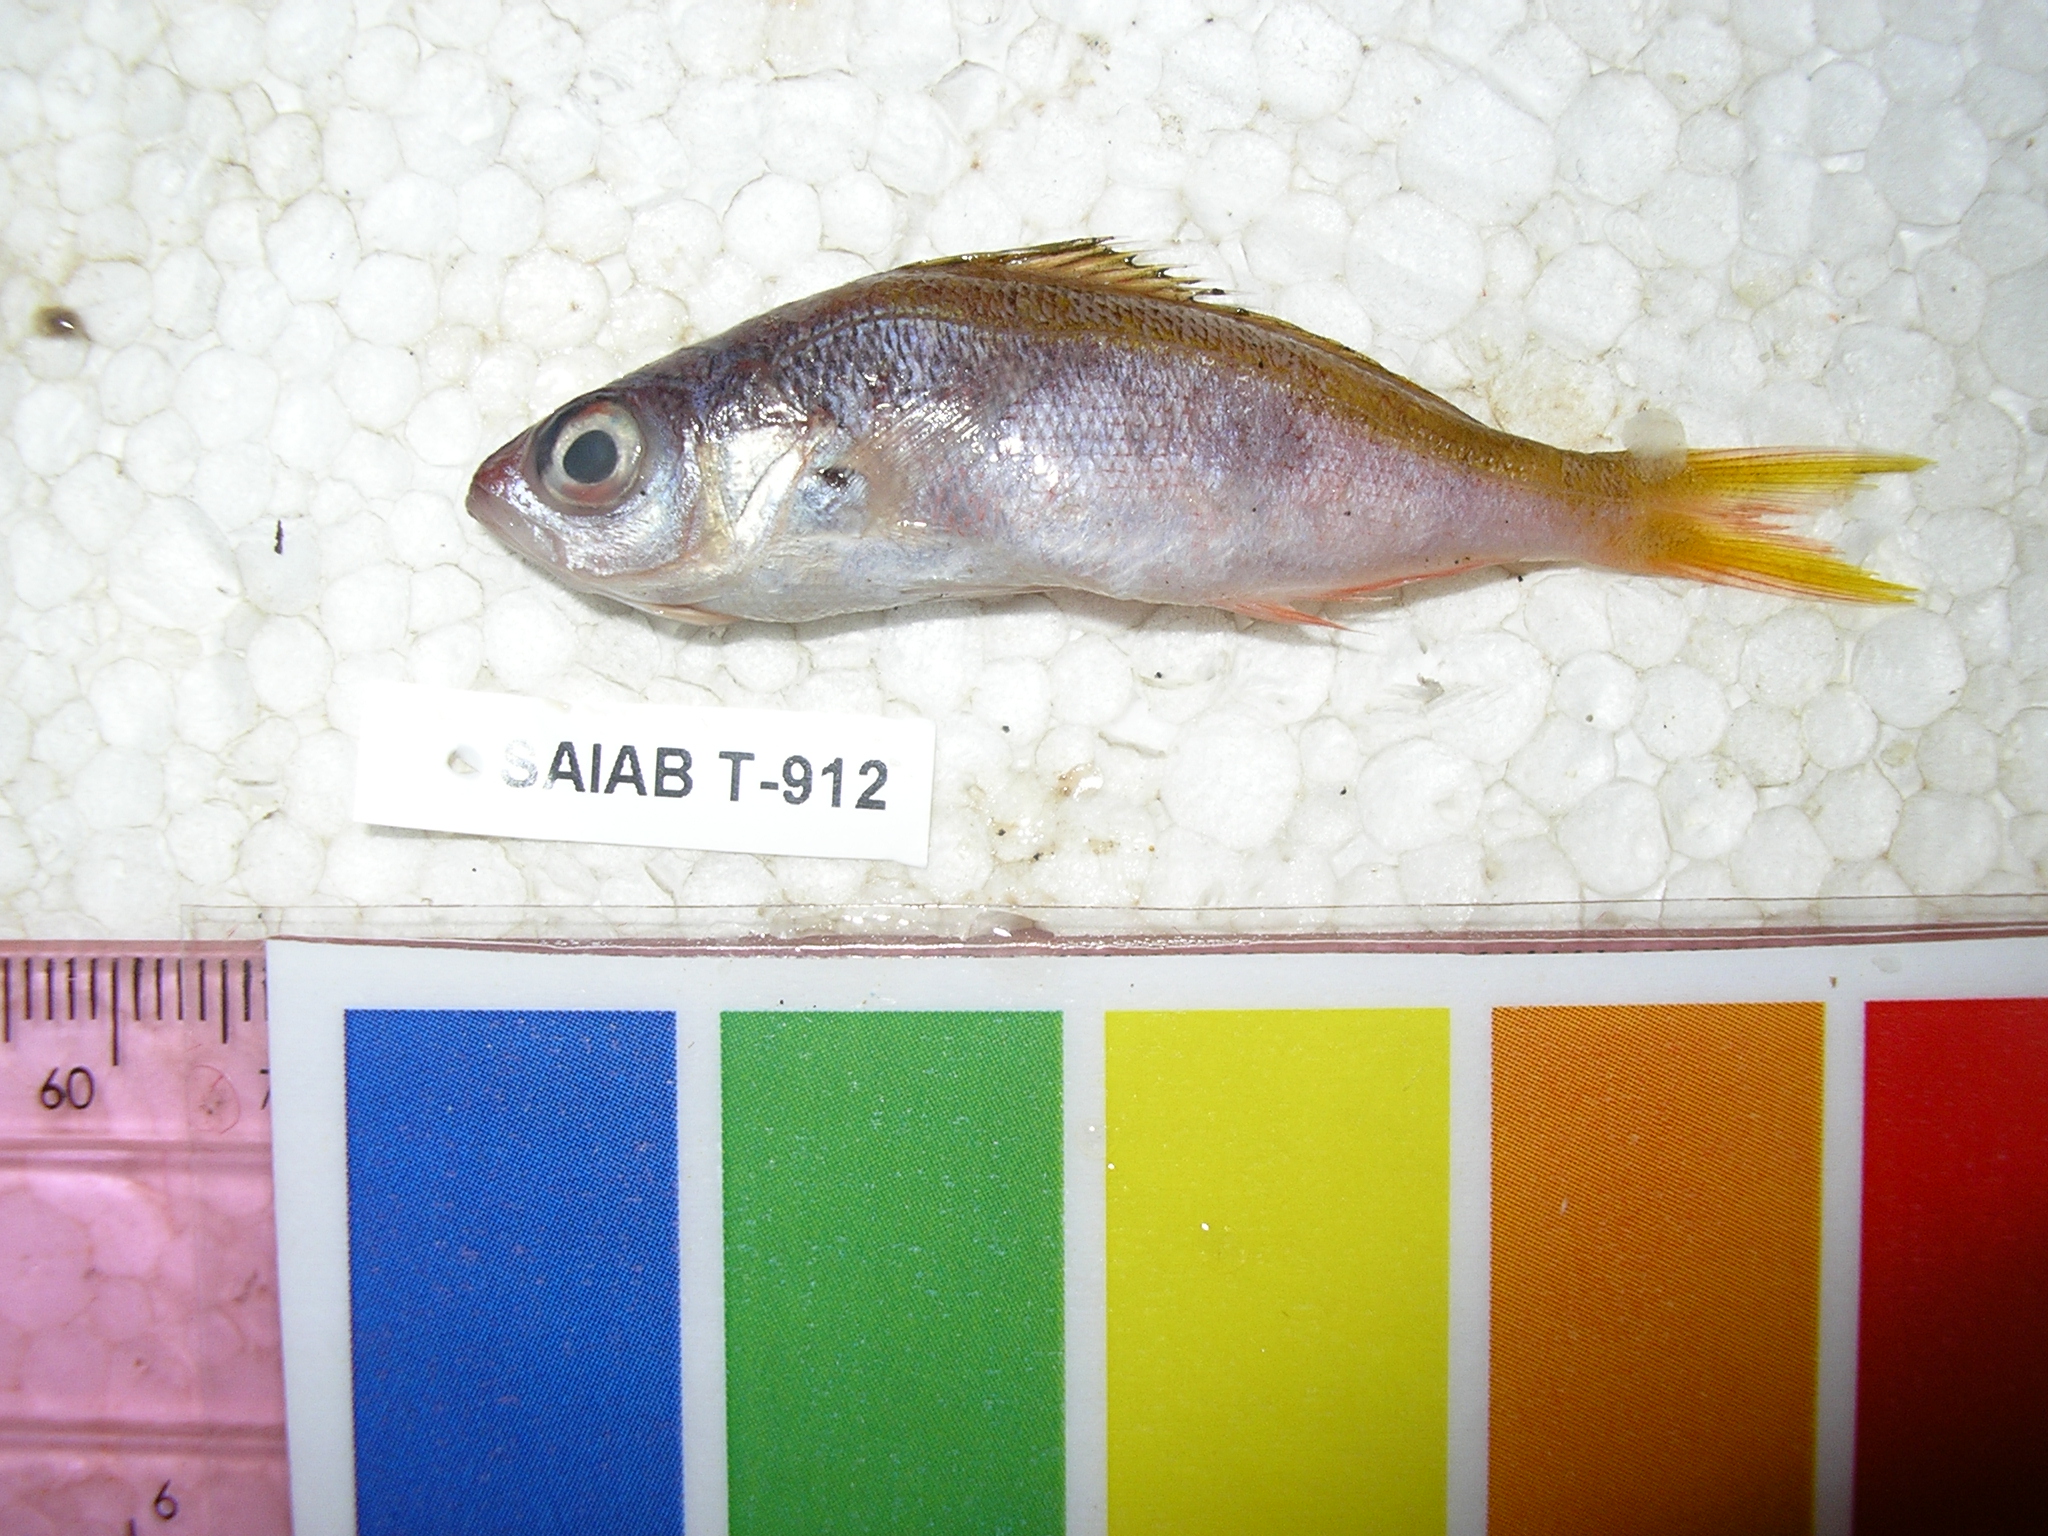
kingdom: Animalia
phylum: Chordata
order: Perciformes
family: Caesionidae
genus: Caesio
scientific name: Caesio xanthonota
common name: Yellowback fusilier
